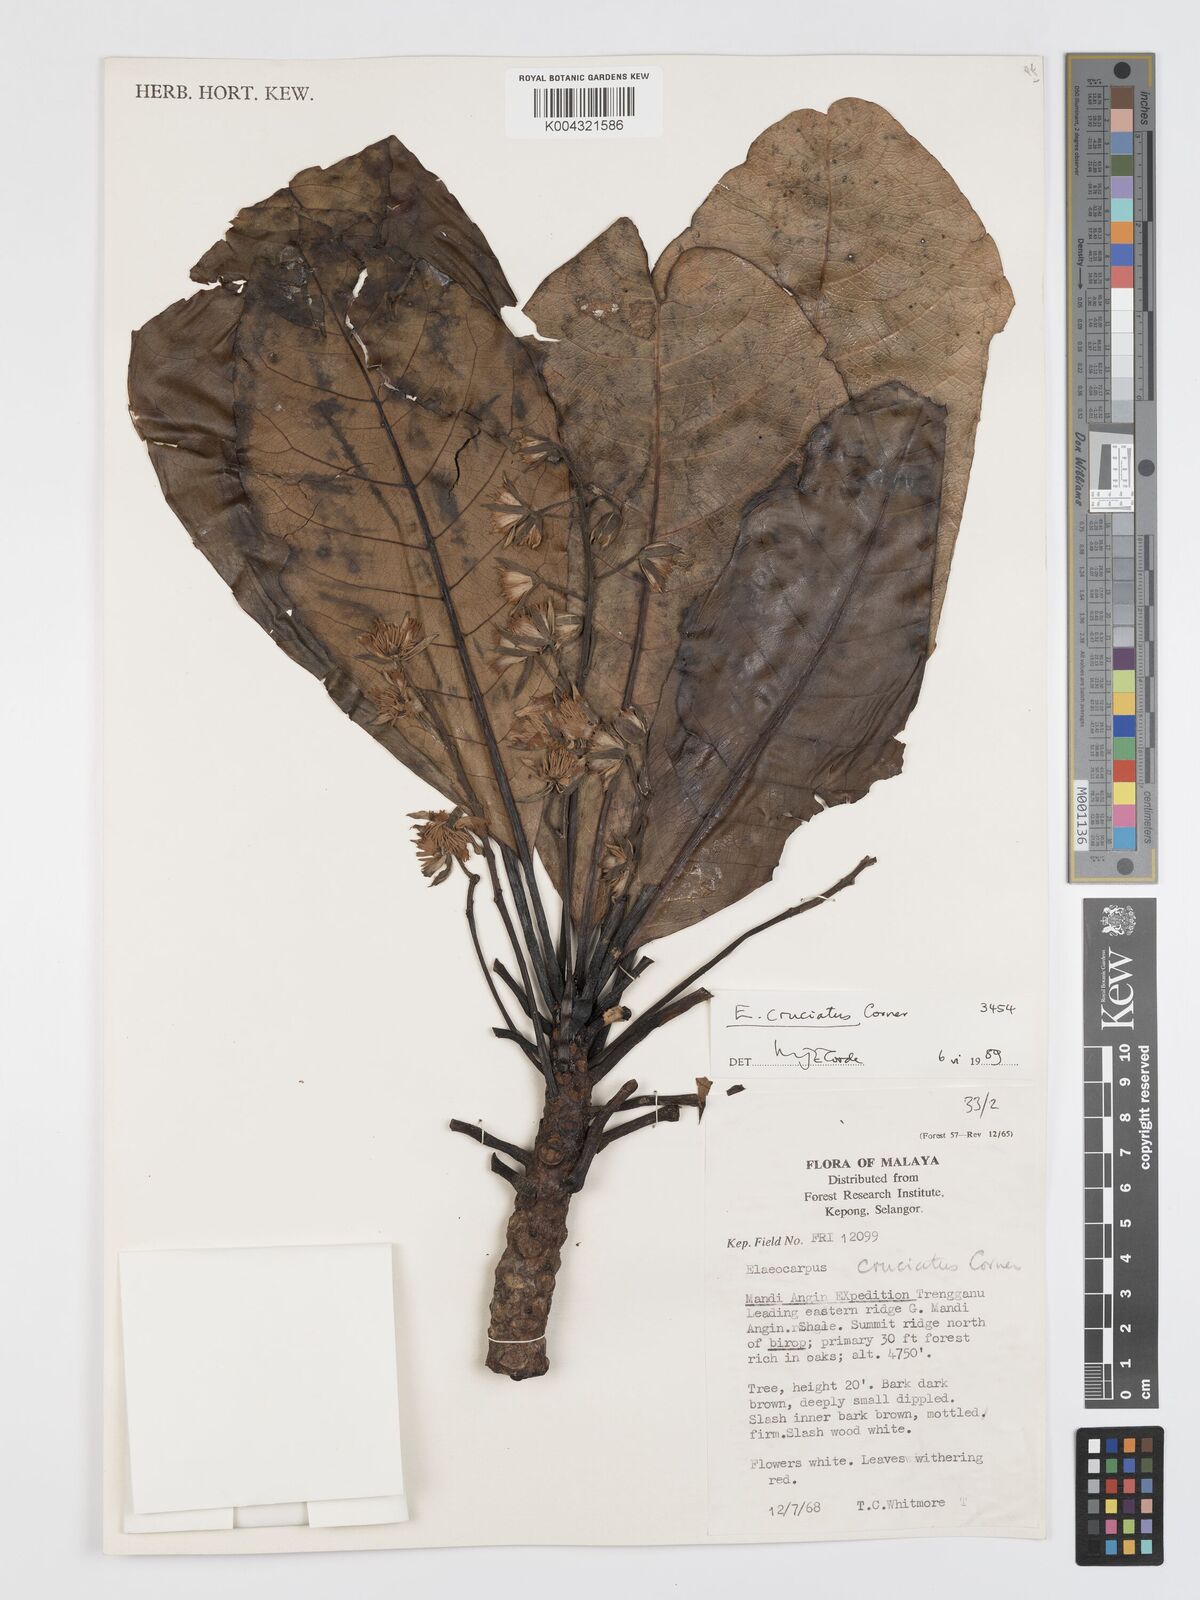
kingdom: Plantae
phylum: Tracheophyta
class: Magnoliopsida
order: Oxalidales
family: Elaeocarpaceae
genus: Elaeocarpus
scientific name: Elaeocarpus cruciatus
